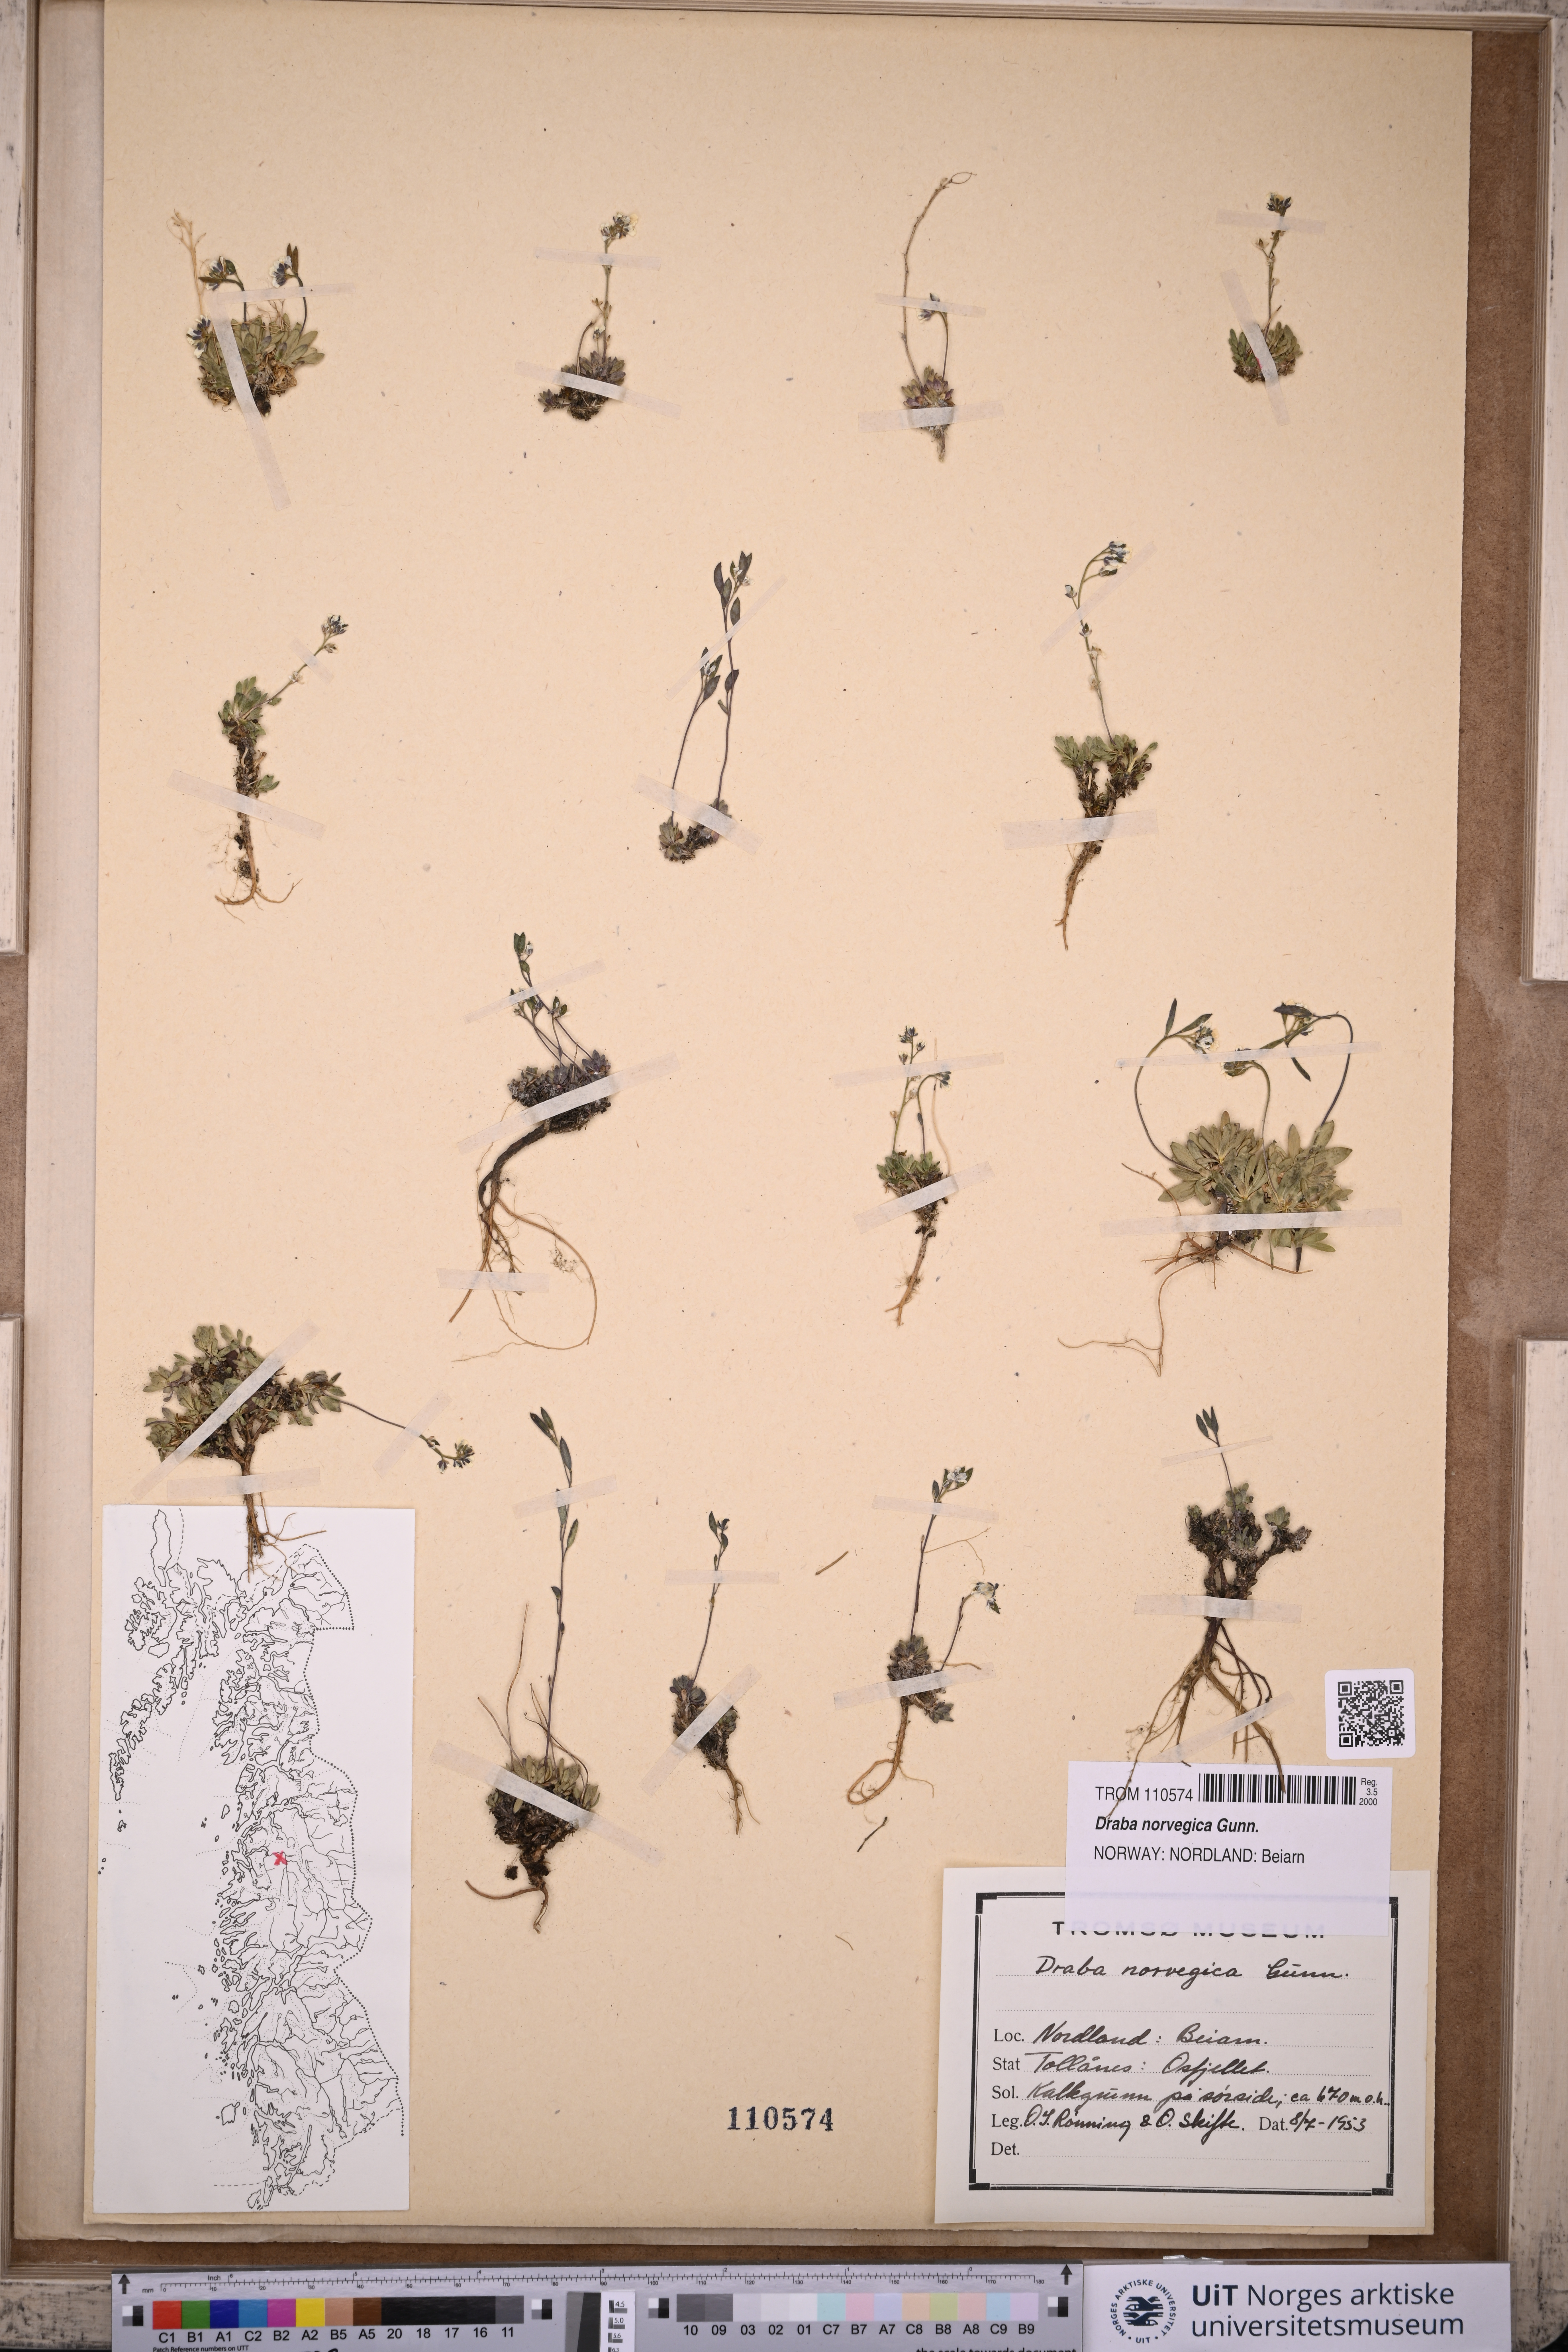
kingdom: Plantae
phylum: Tracheophyta
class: Magnoliopsida
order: Brassicales
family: Brassicaceae
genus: Draba
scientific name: Draba norvegica
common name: Rock whitlowgrass
